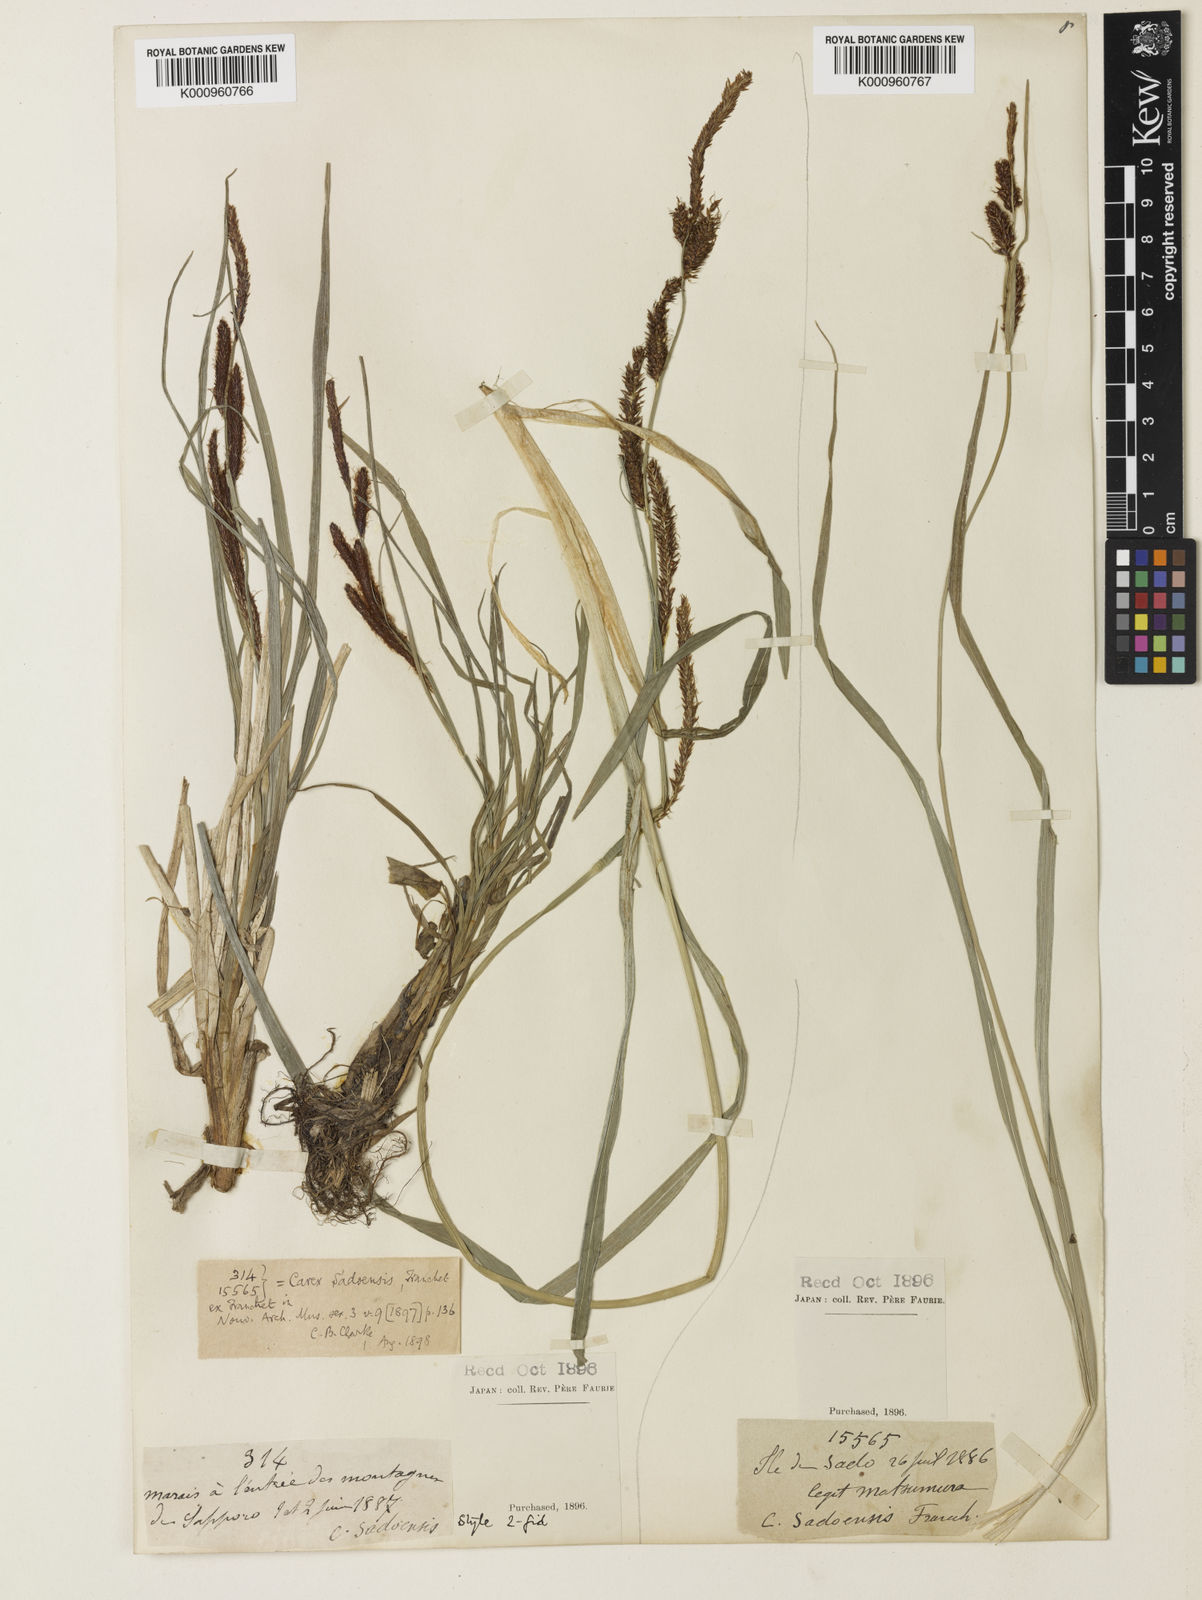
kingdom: Plantae
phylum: Tracheophyta
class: Liliopsida
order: Poales
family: Cyperaceae
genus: Carex
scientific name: Carex sadoensis
